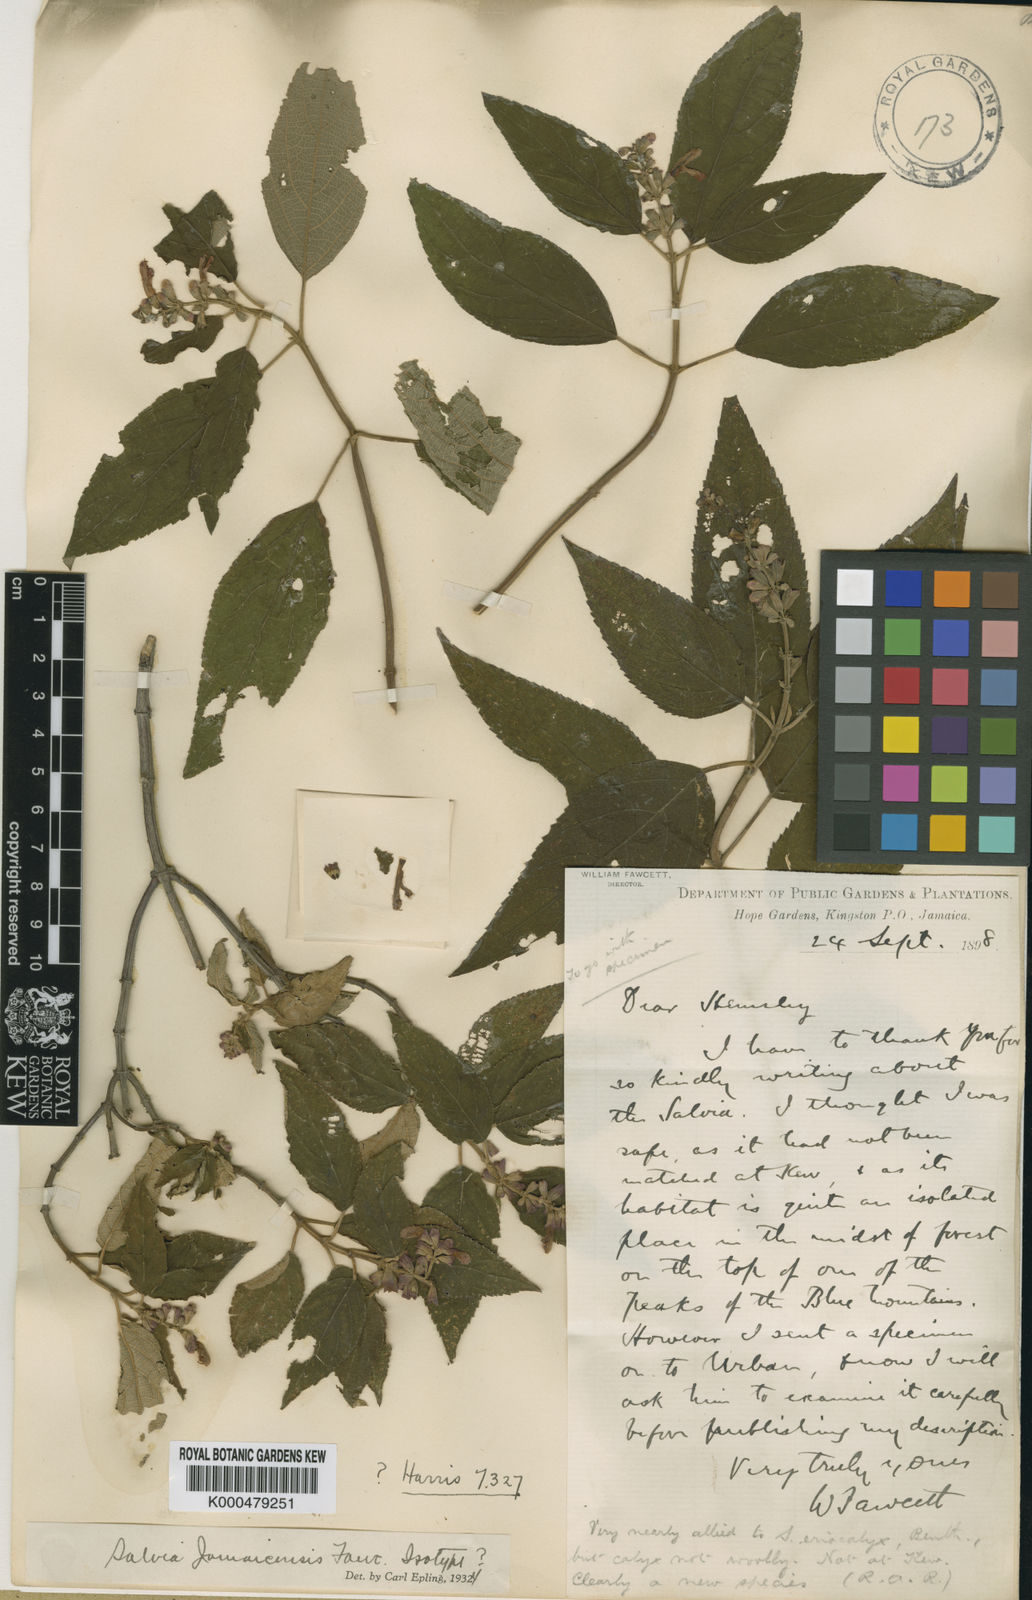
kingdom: Plantae
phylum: Tracheophyta
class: Magnoliopsida
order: Lamiales
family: Lamiaceae
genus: Salvia
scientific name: Salvia jamaicensis
